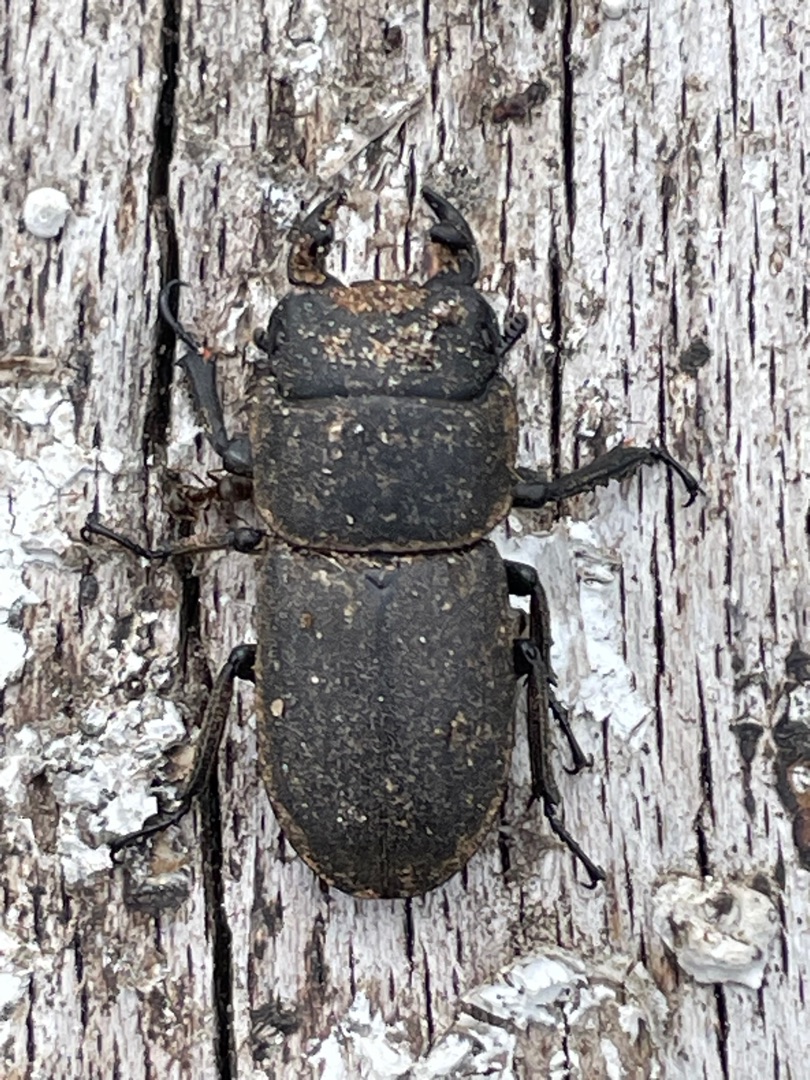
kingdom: Animalia
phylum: Arthropoda
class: Insecta
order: Coleoptera
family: Lucanidae
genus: Dorcus
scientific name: Dorcus parallelipipedus
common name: Bøghjort
